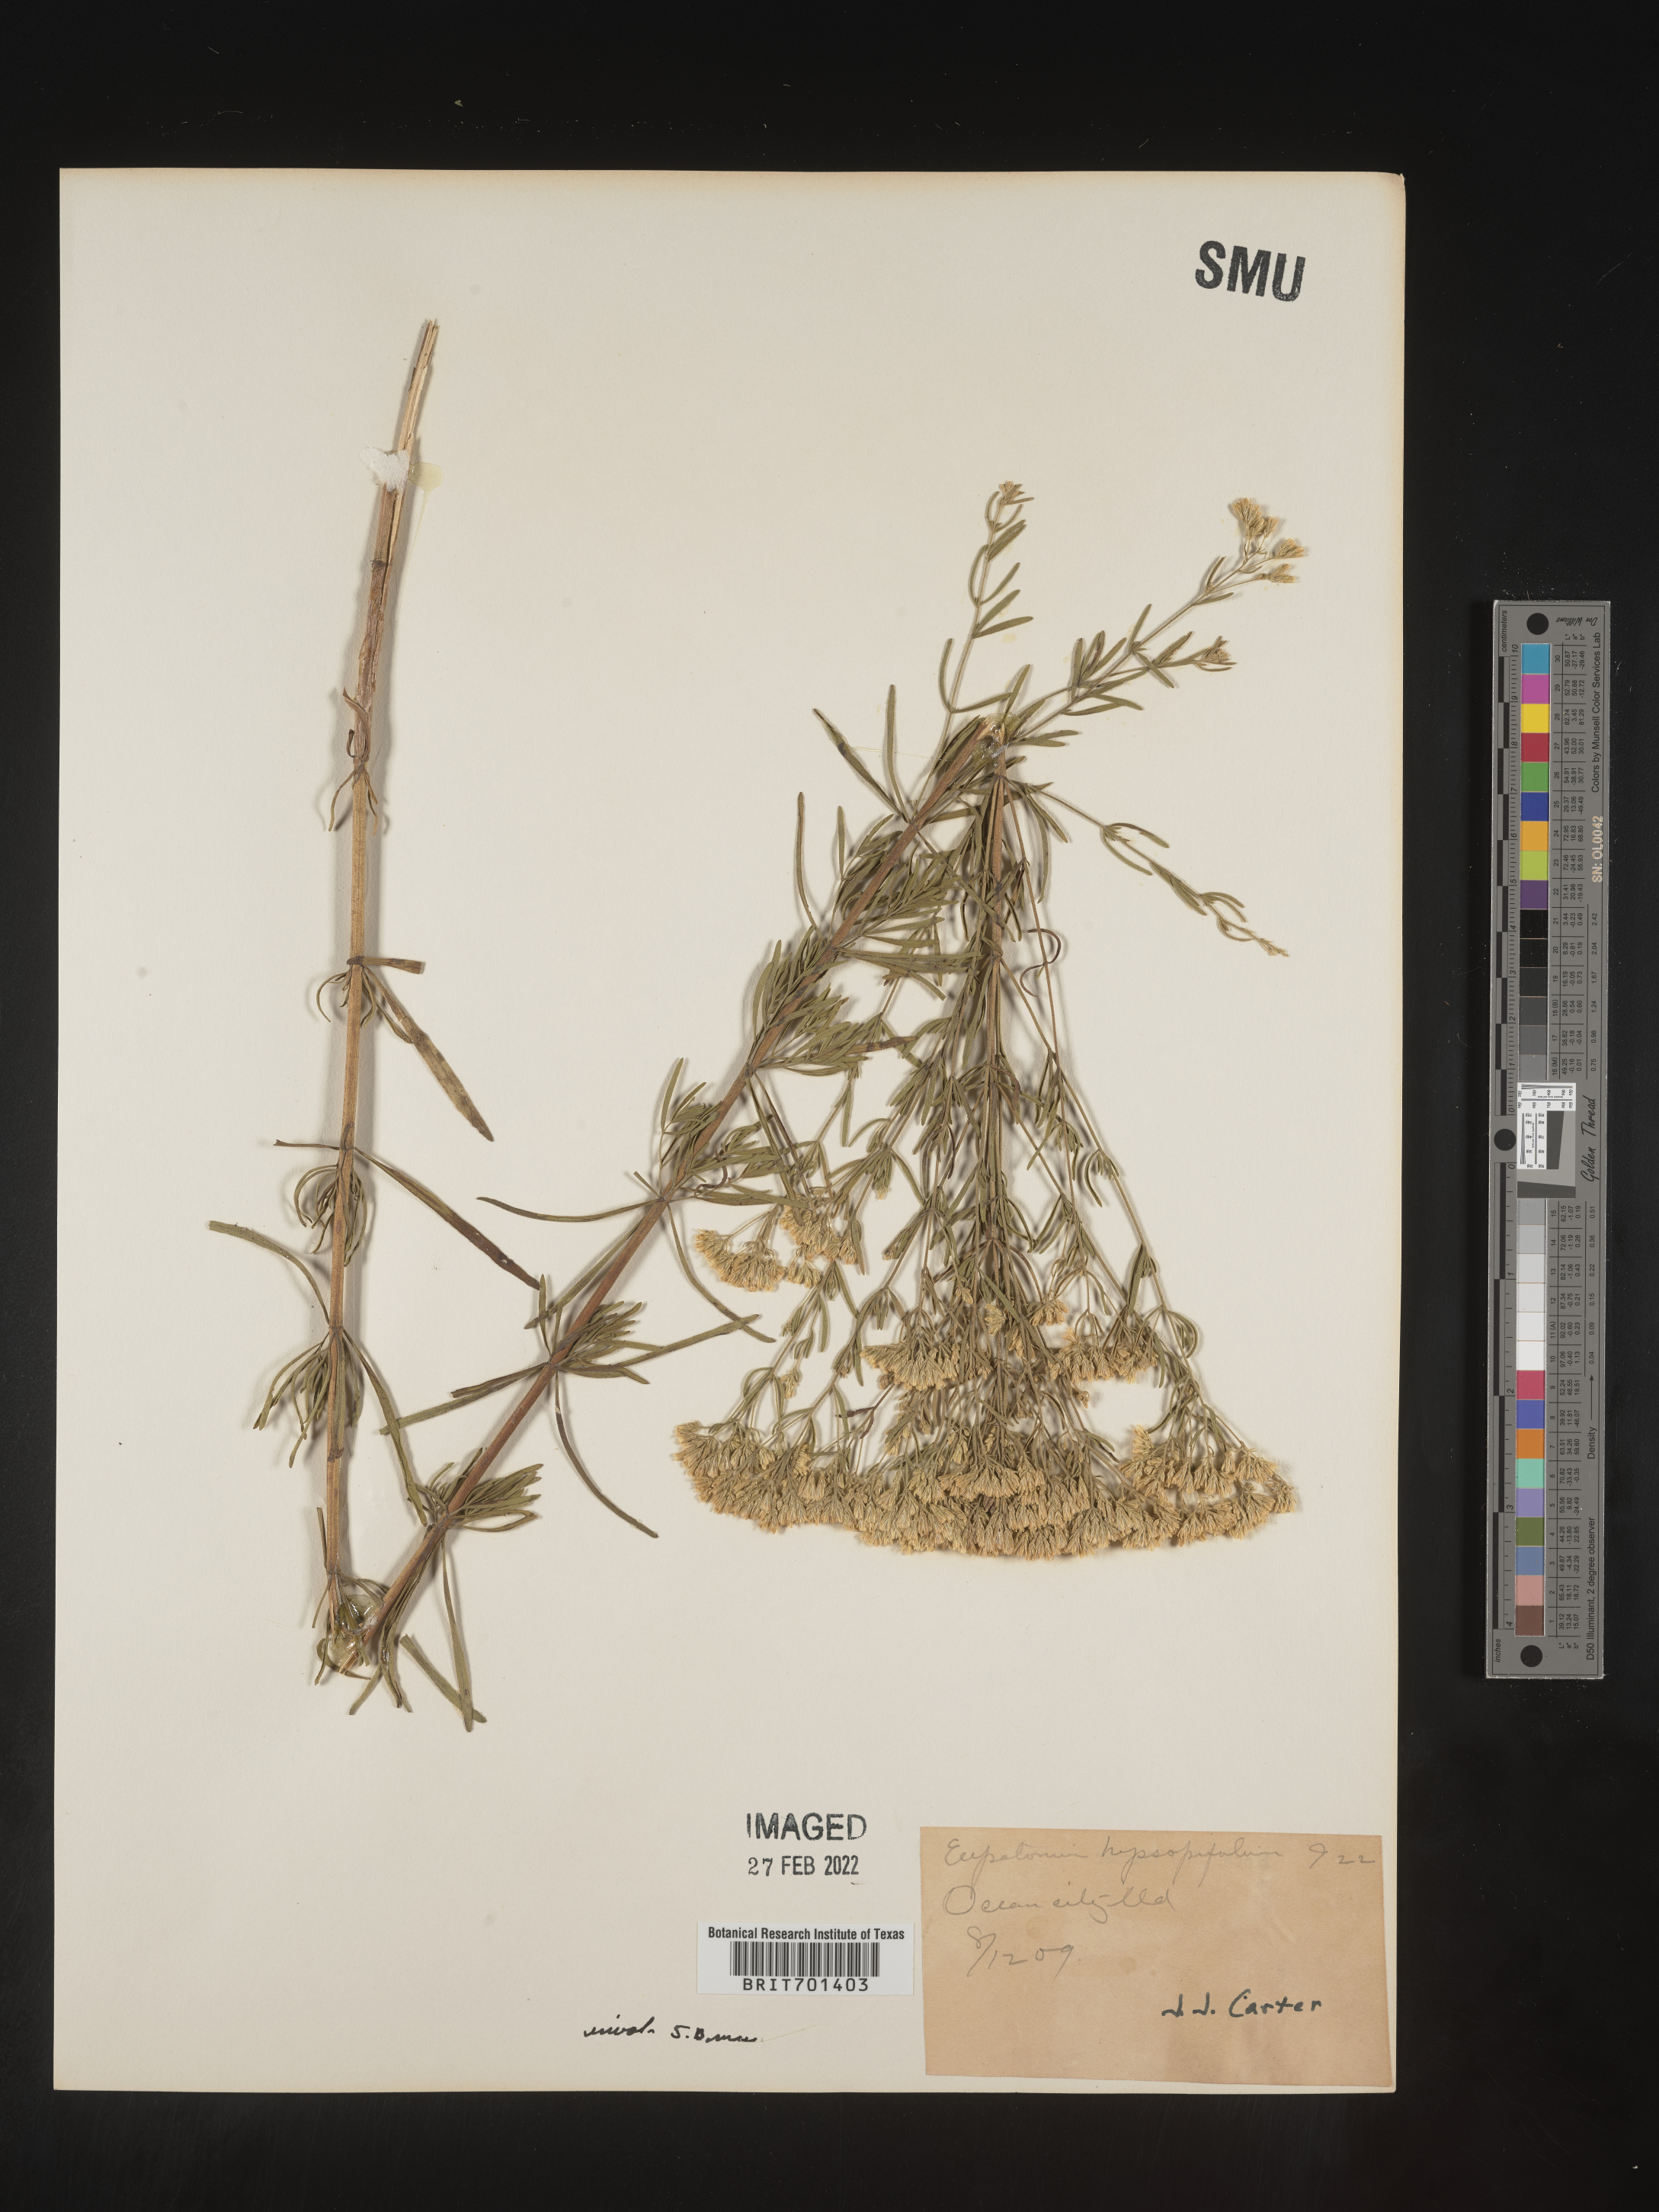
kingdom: Plantae
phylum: Tracheophyta
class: Magnoliopsida
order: Asterales
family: Asteraceae
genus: Eupatorium
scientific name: Eupatorium hyssopifolium
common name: Hyssop-leaf thoroughwort
